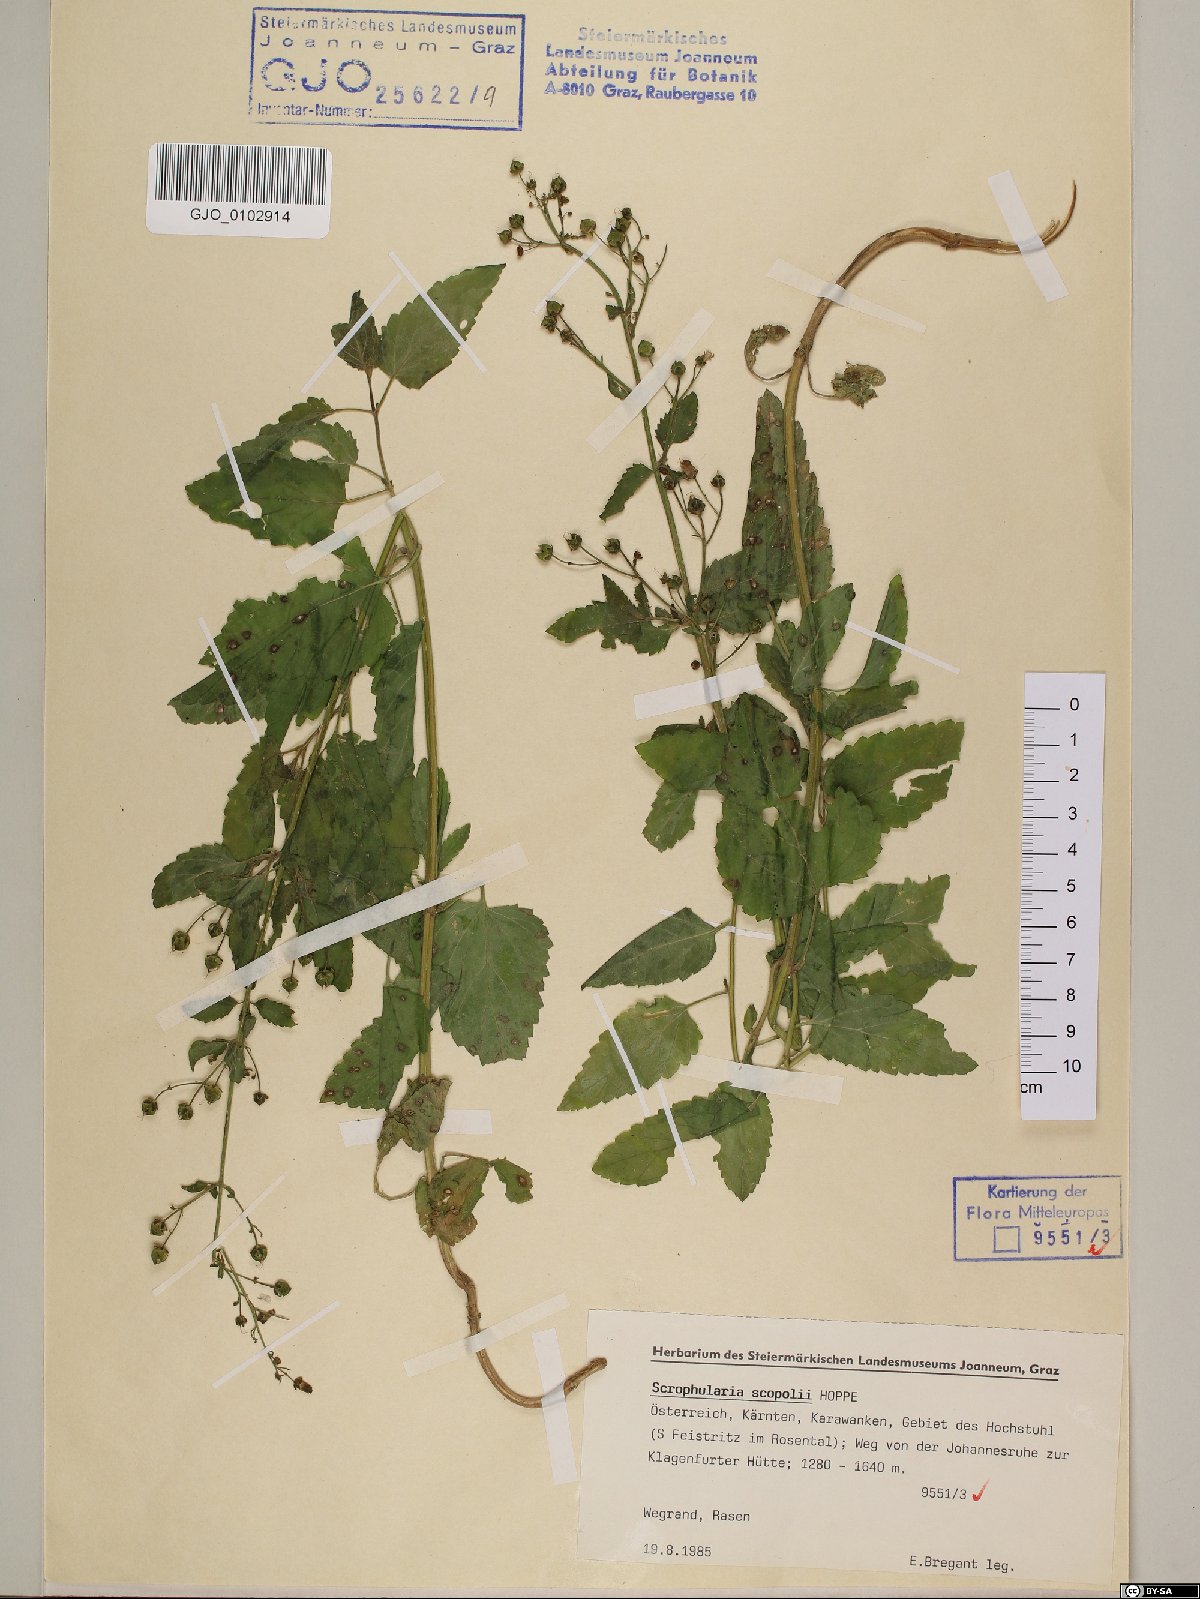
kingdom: Plantae
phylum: Tracheophyta
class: Magnoliopsida
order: Lamiales
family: Scrophulariaceae
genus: Scrophularia
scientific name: Scrophularia scopolii
